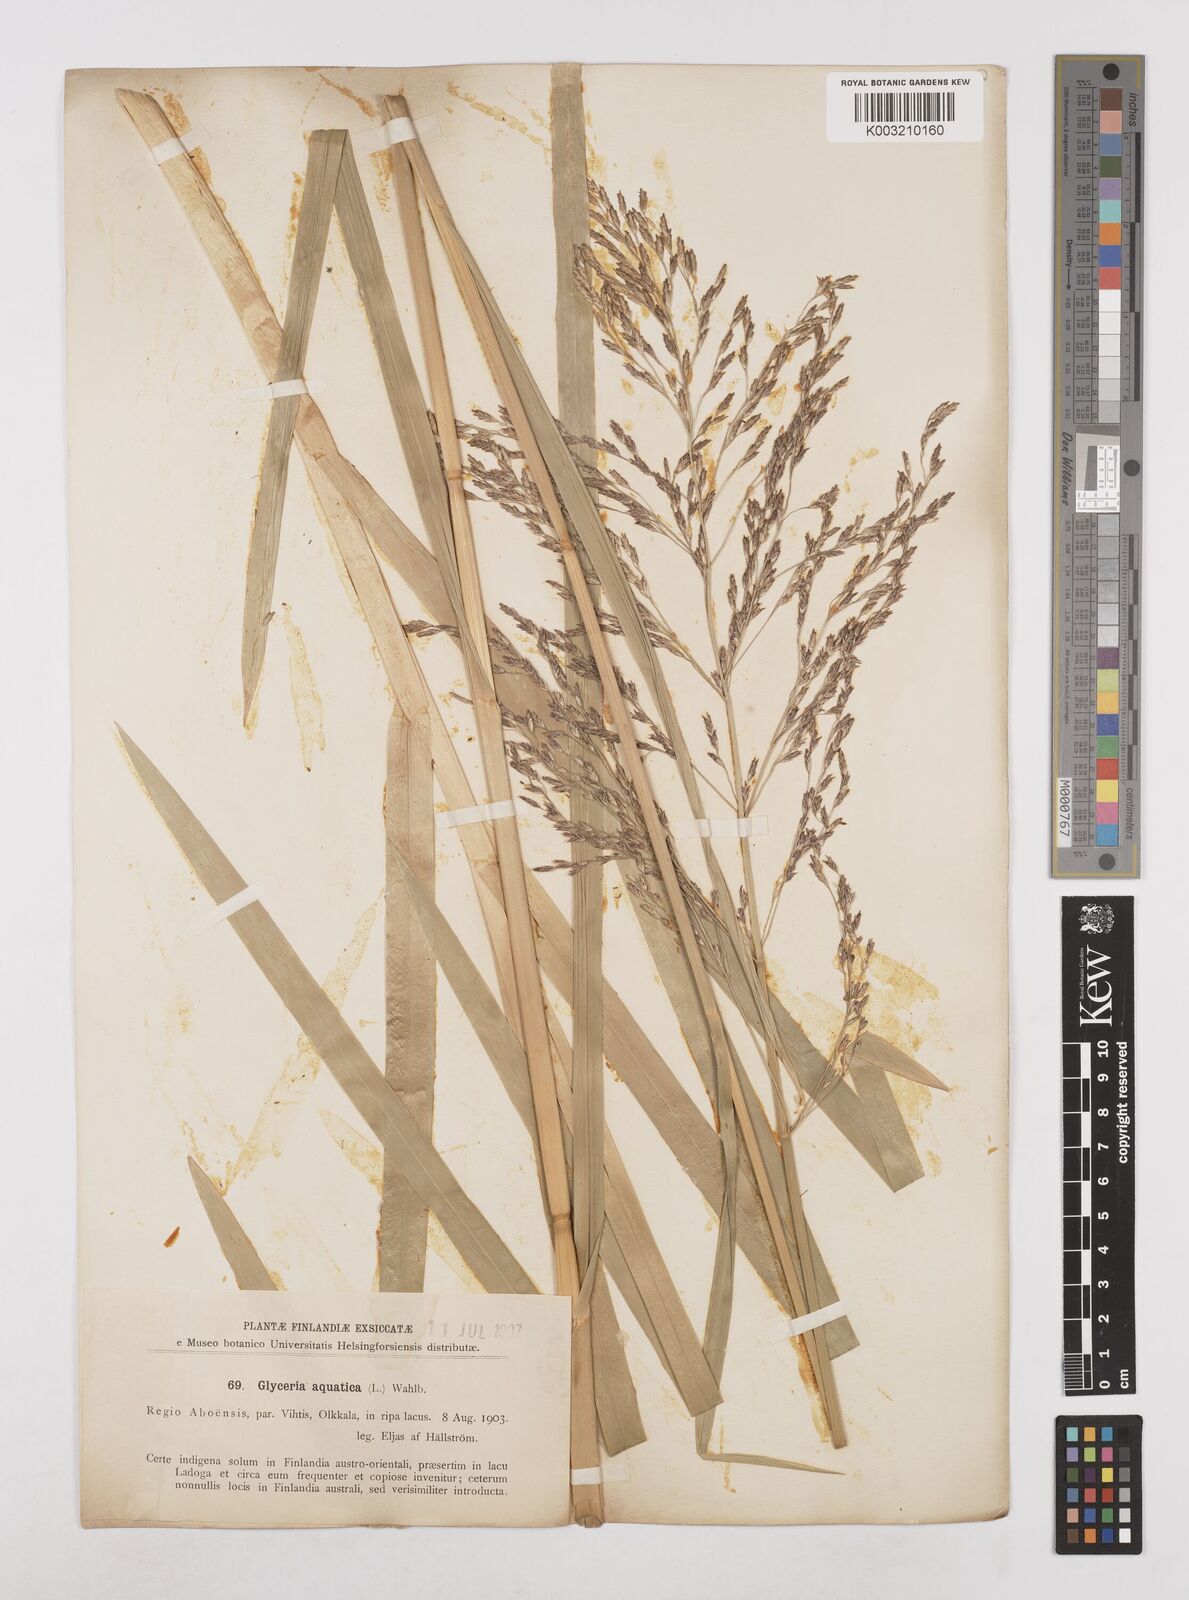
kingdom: Plantae
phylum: Tracheophyta
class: Liliopsida
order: Poales
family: Poaceae
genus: Glyceria
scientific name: Glyceria maxima
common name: Reed mannagrass
